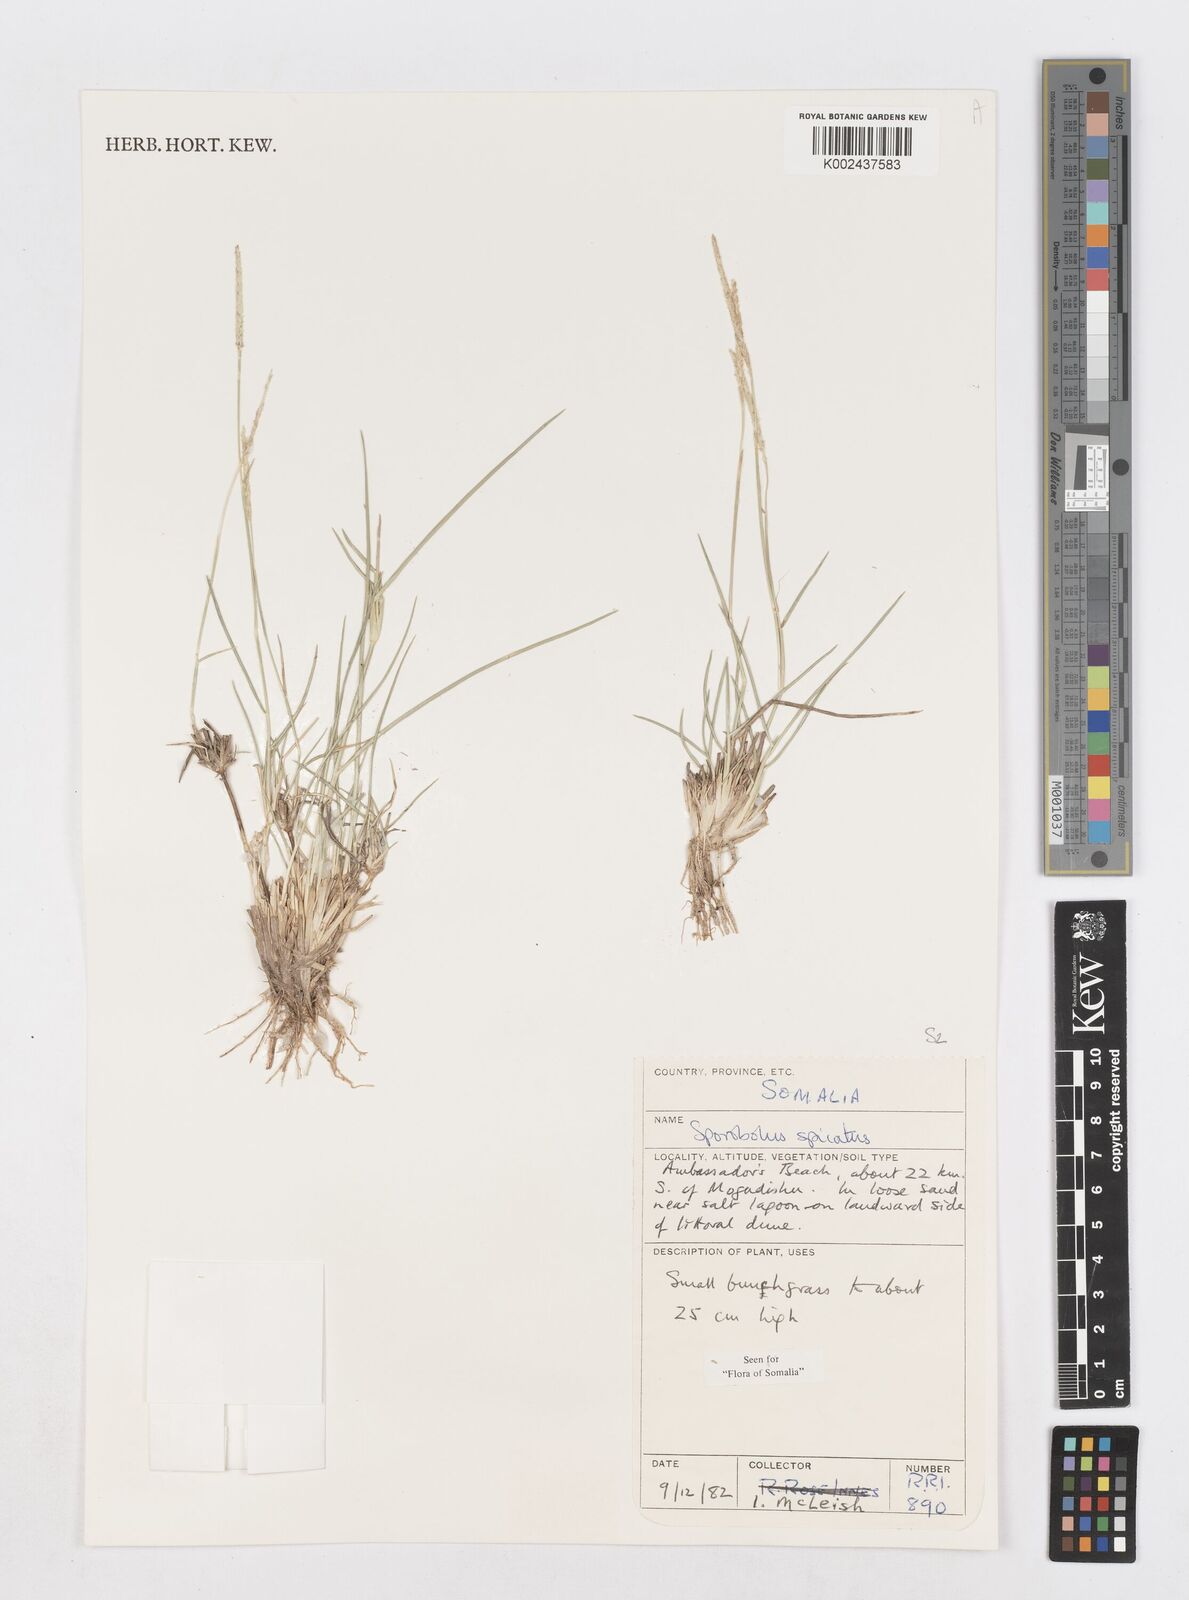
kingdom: Plantae
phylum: Tracheophyta
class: Liliopsida
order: Poales
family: Poaceae
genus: Sporobolus
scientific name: Sporobolus spicatus
